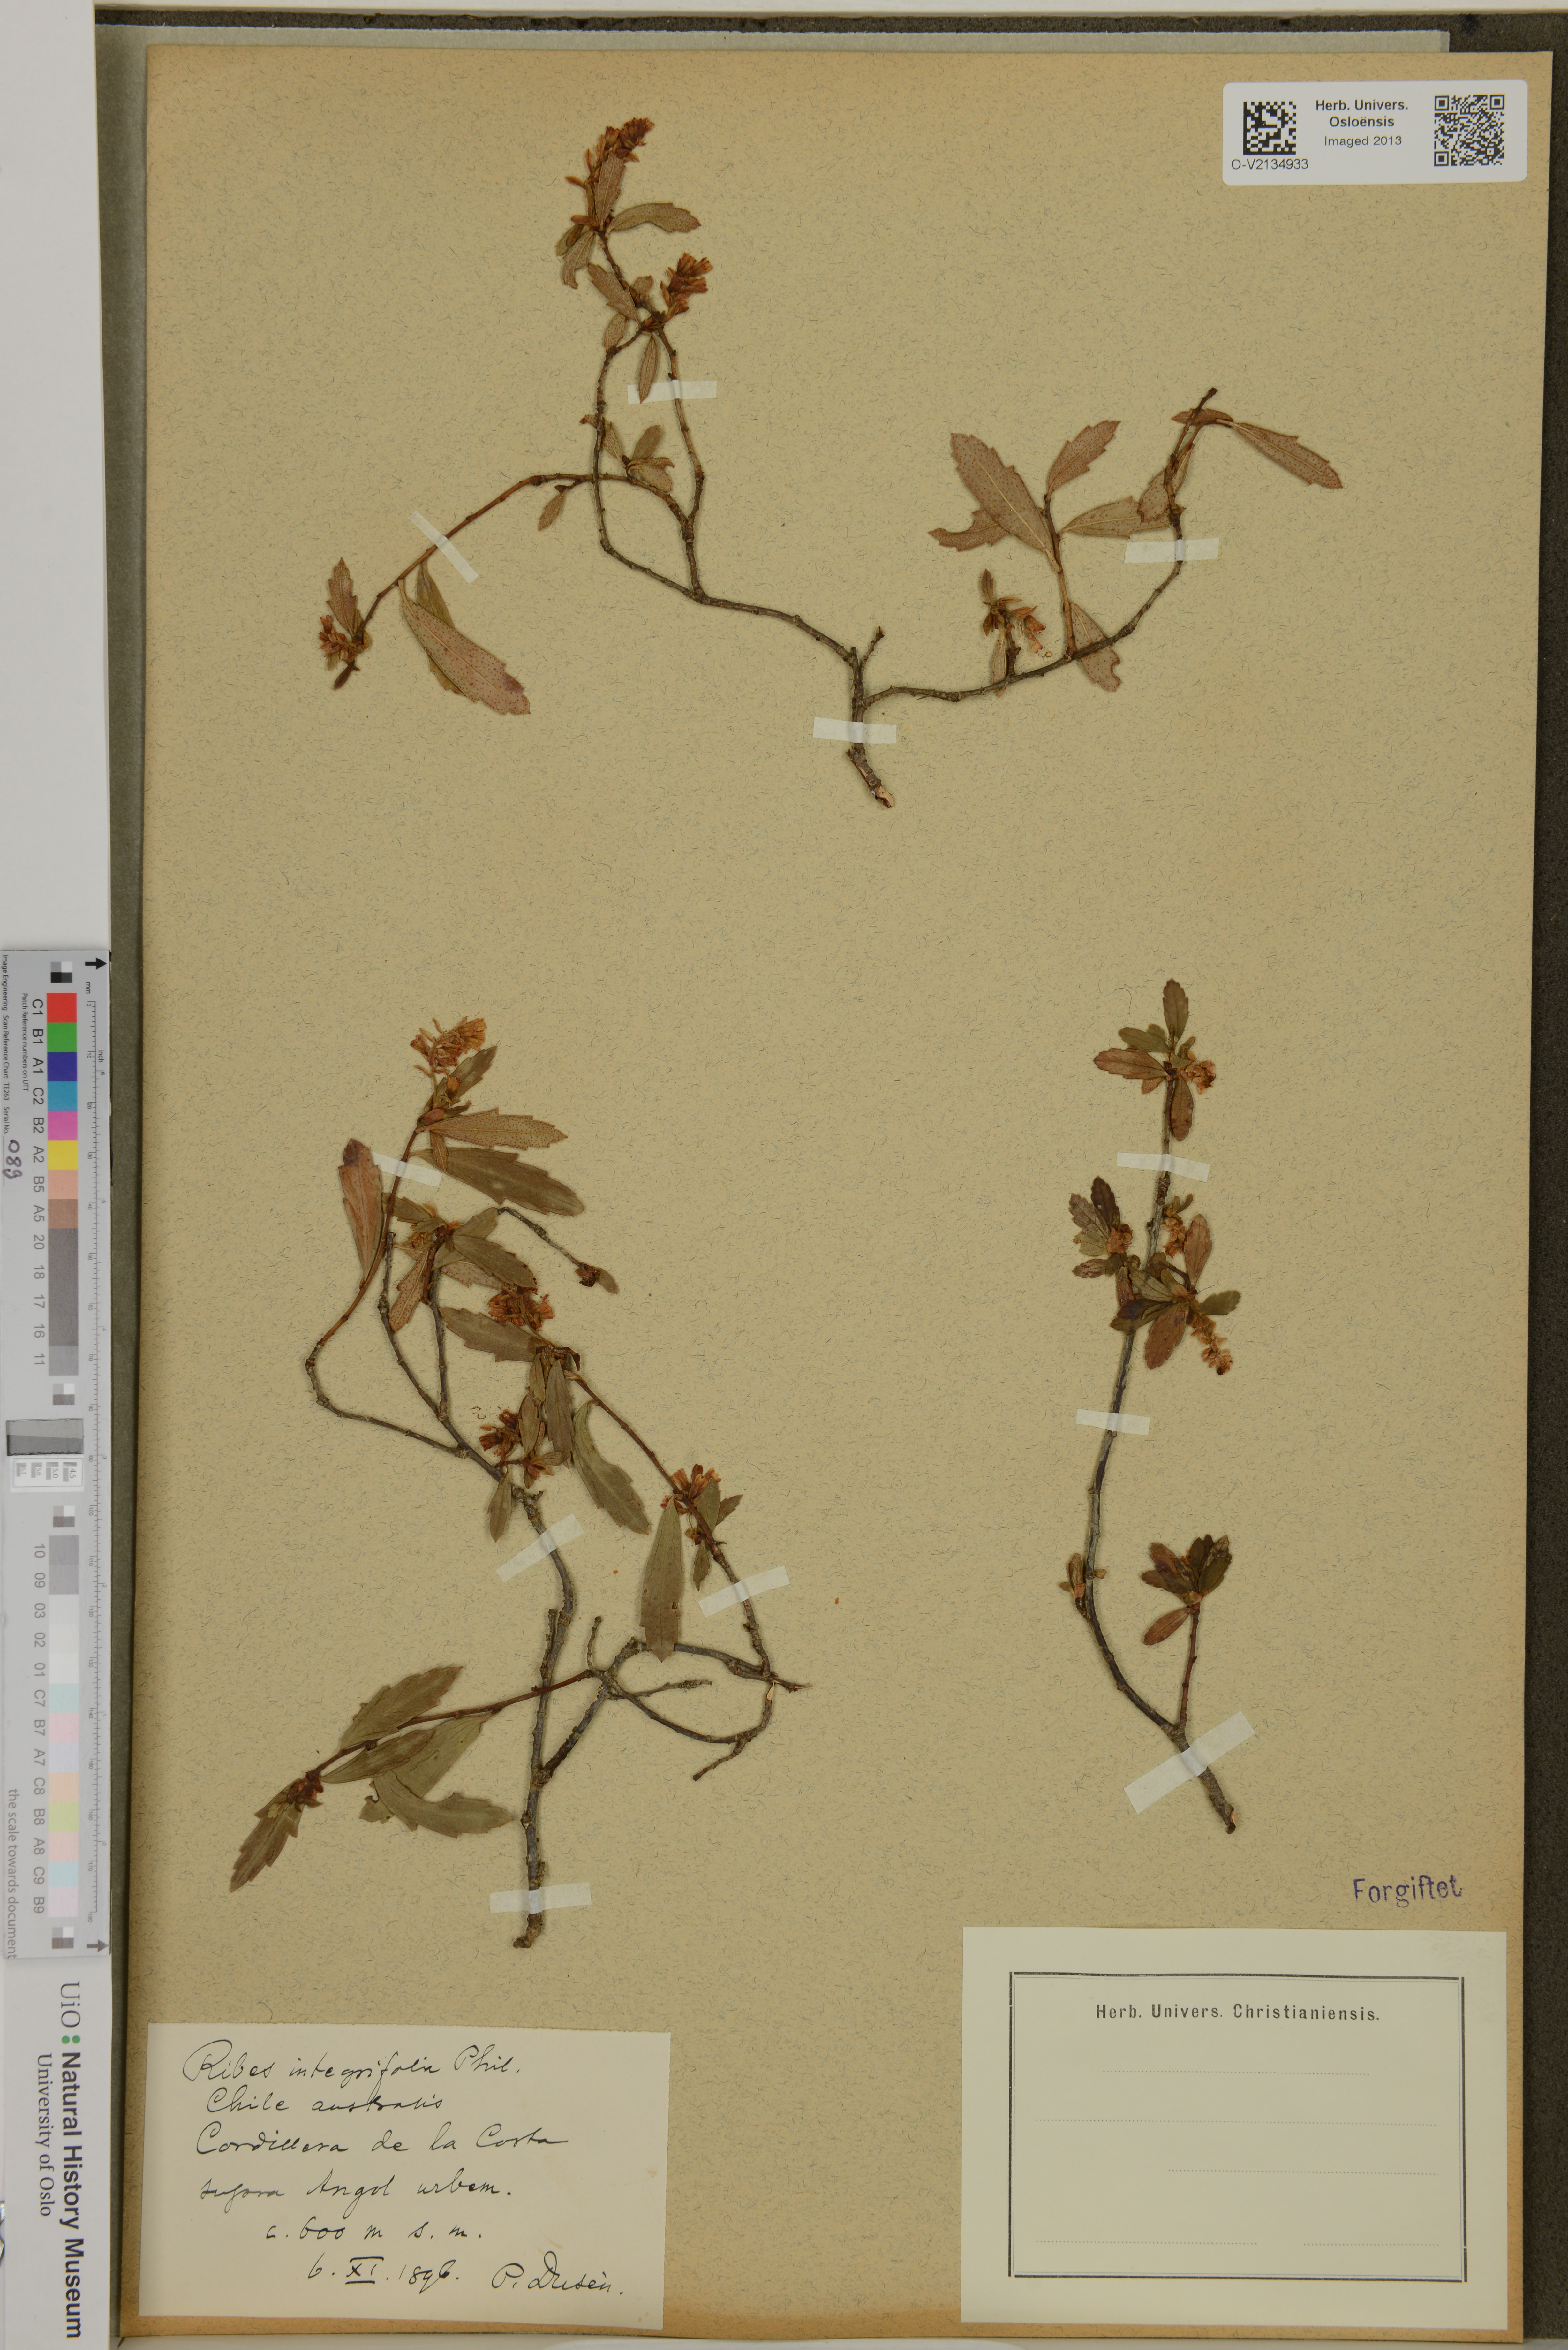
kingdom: Plantae
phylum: Tracheophyta
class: Magnoliopsida
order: Saxifragales
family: Grossulariaceae
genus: Ribes
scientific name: Ribes integrifolium
